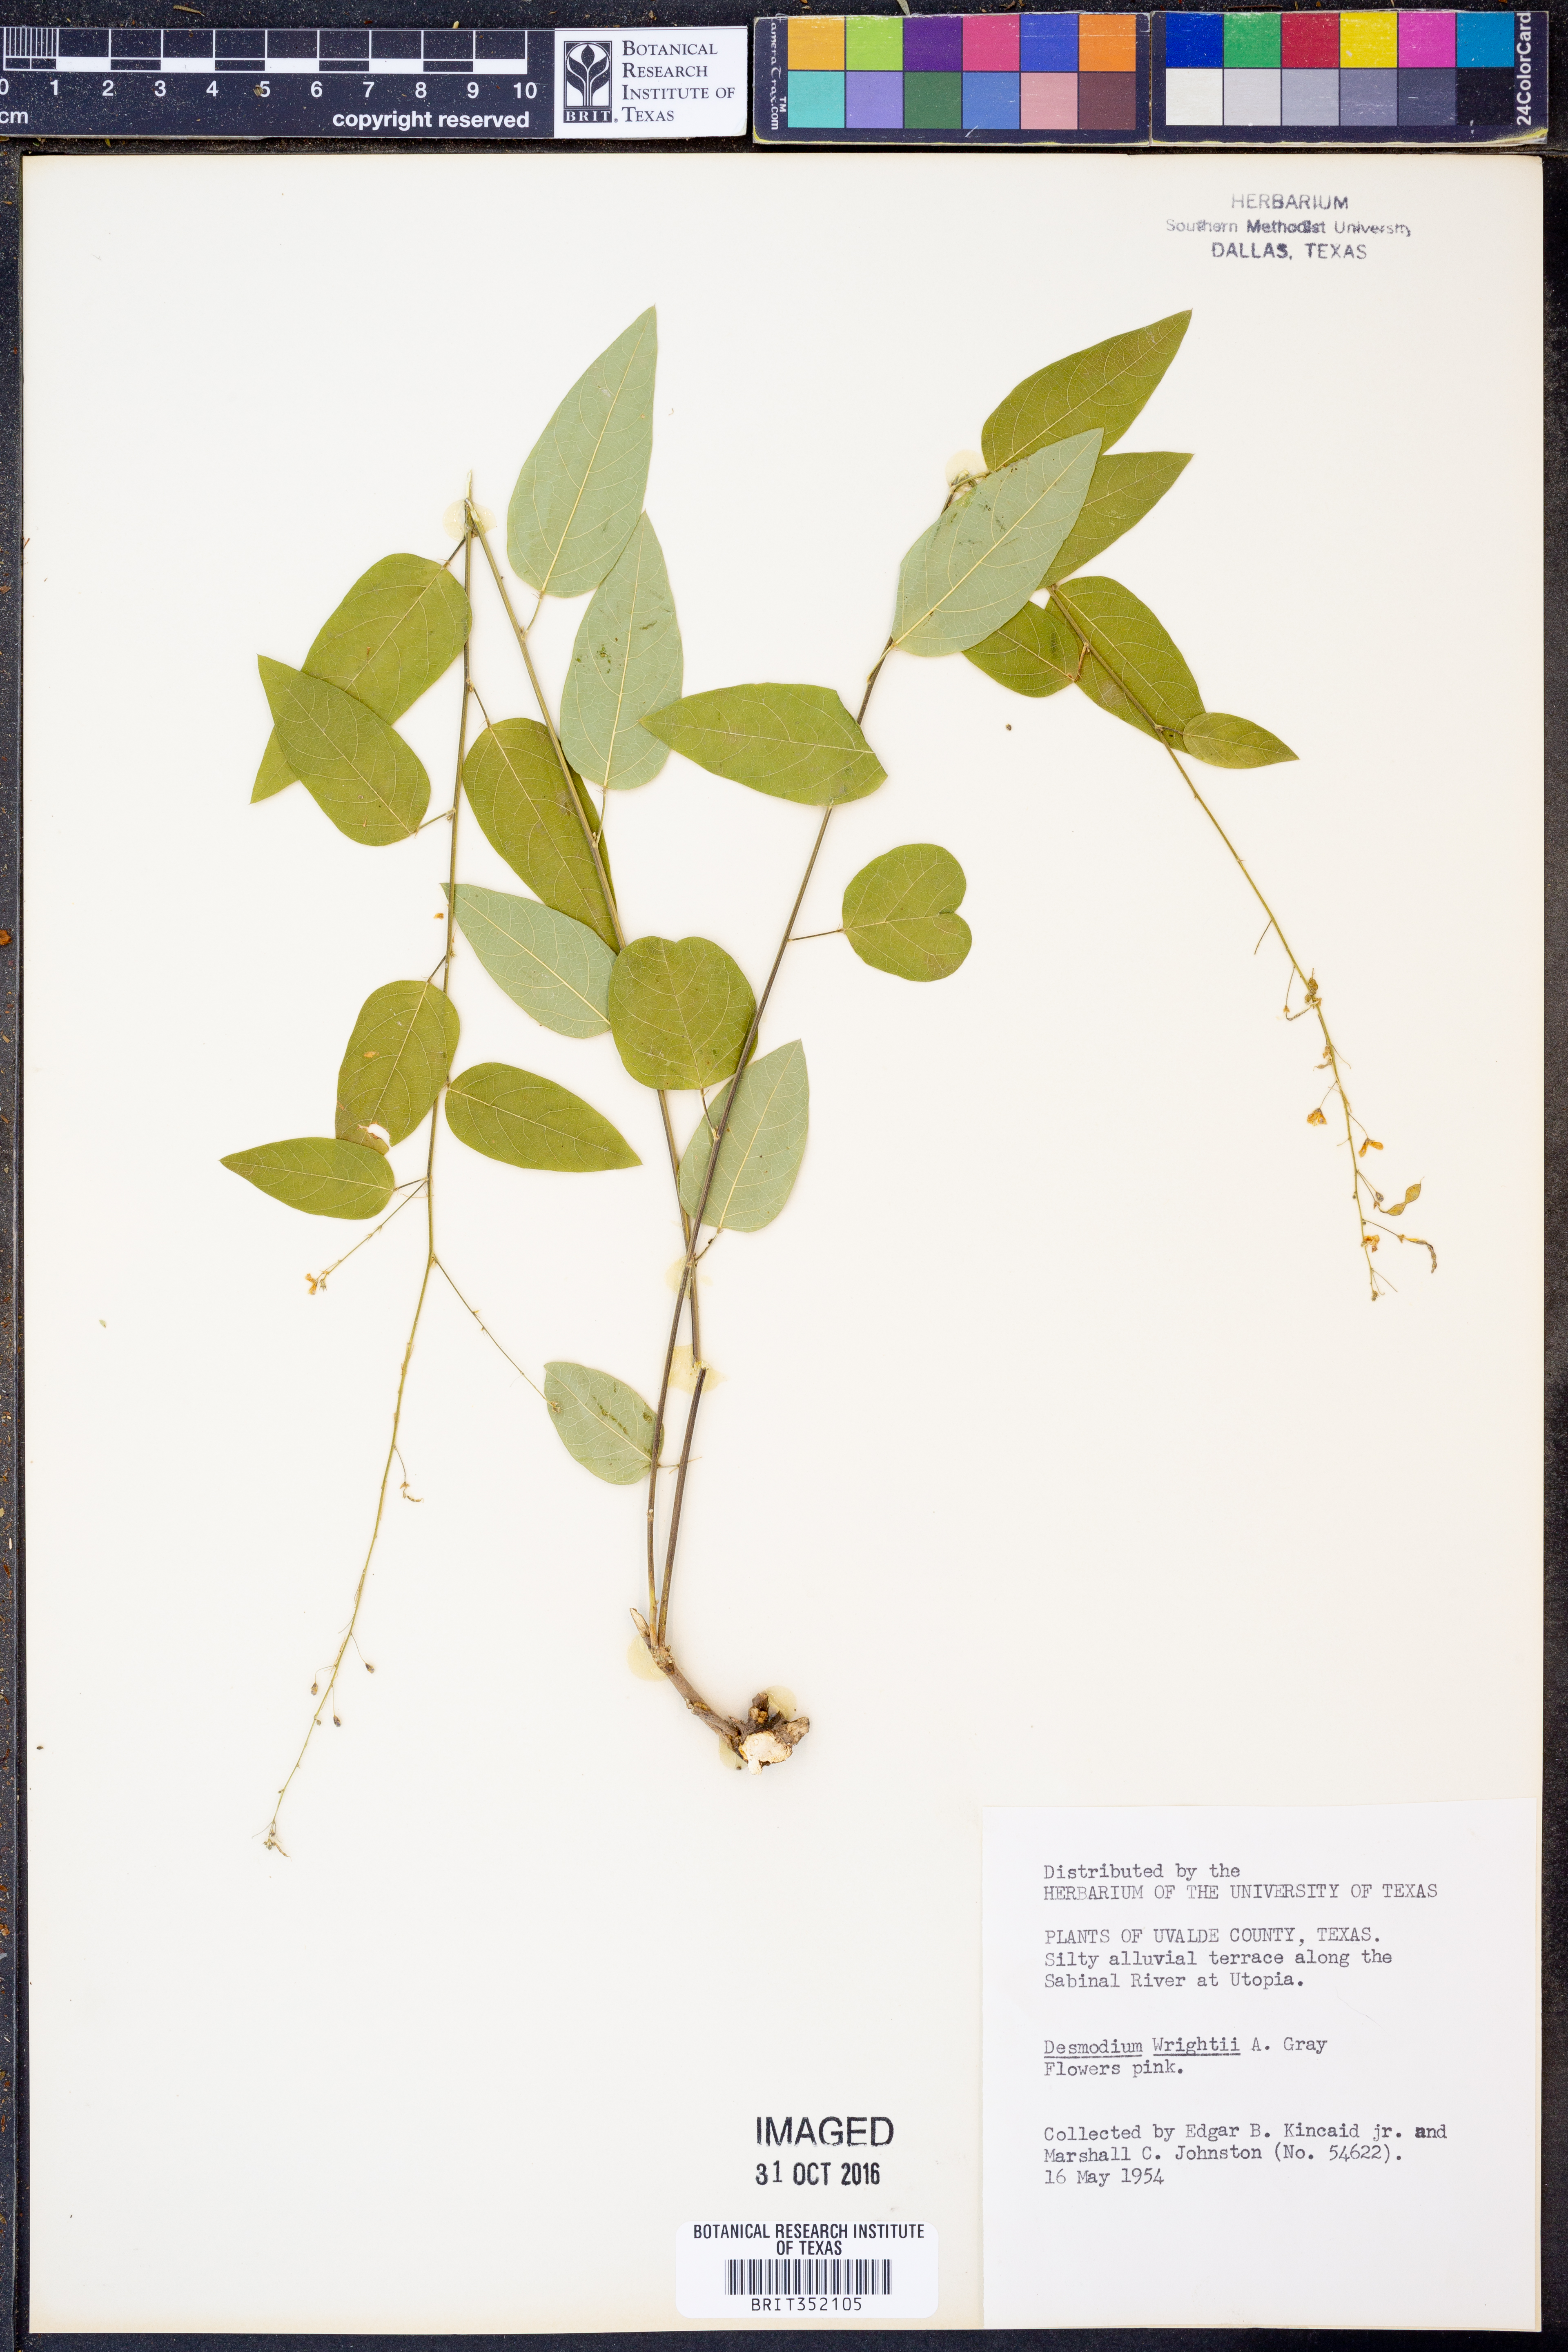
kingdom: Plantae
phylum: Tracheophyta
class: Magnoliopsida
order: Fabales
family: Fabaceae
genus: Desmodium
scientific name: Desmodium psilophyllum
